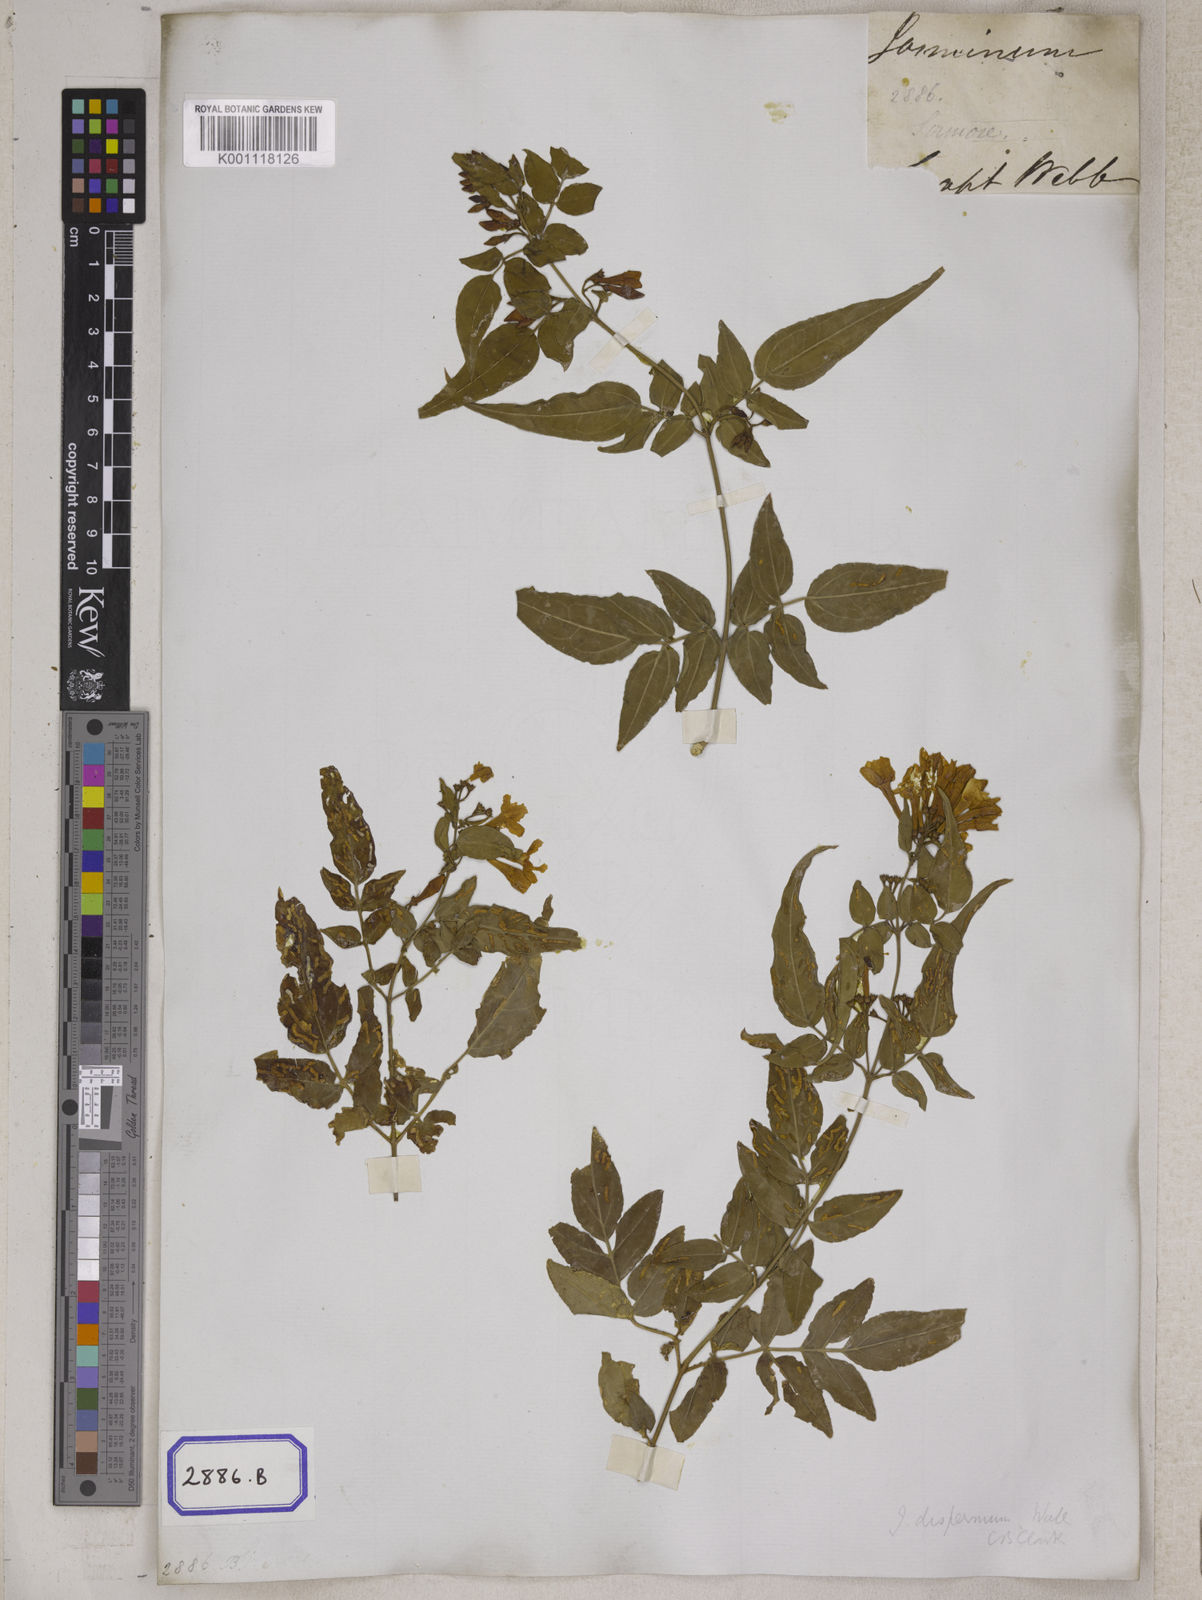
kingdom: Plantae
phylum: Tracheophyta
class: Magnoliopsida
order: Lamiales
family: Oleaceae
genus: Jasminum
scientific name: Jasminum dispermum
